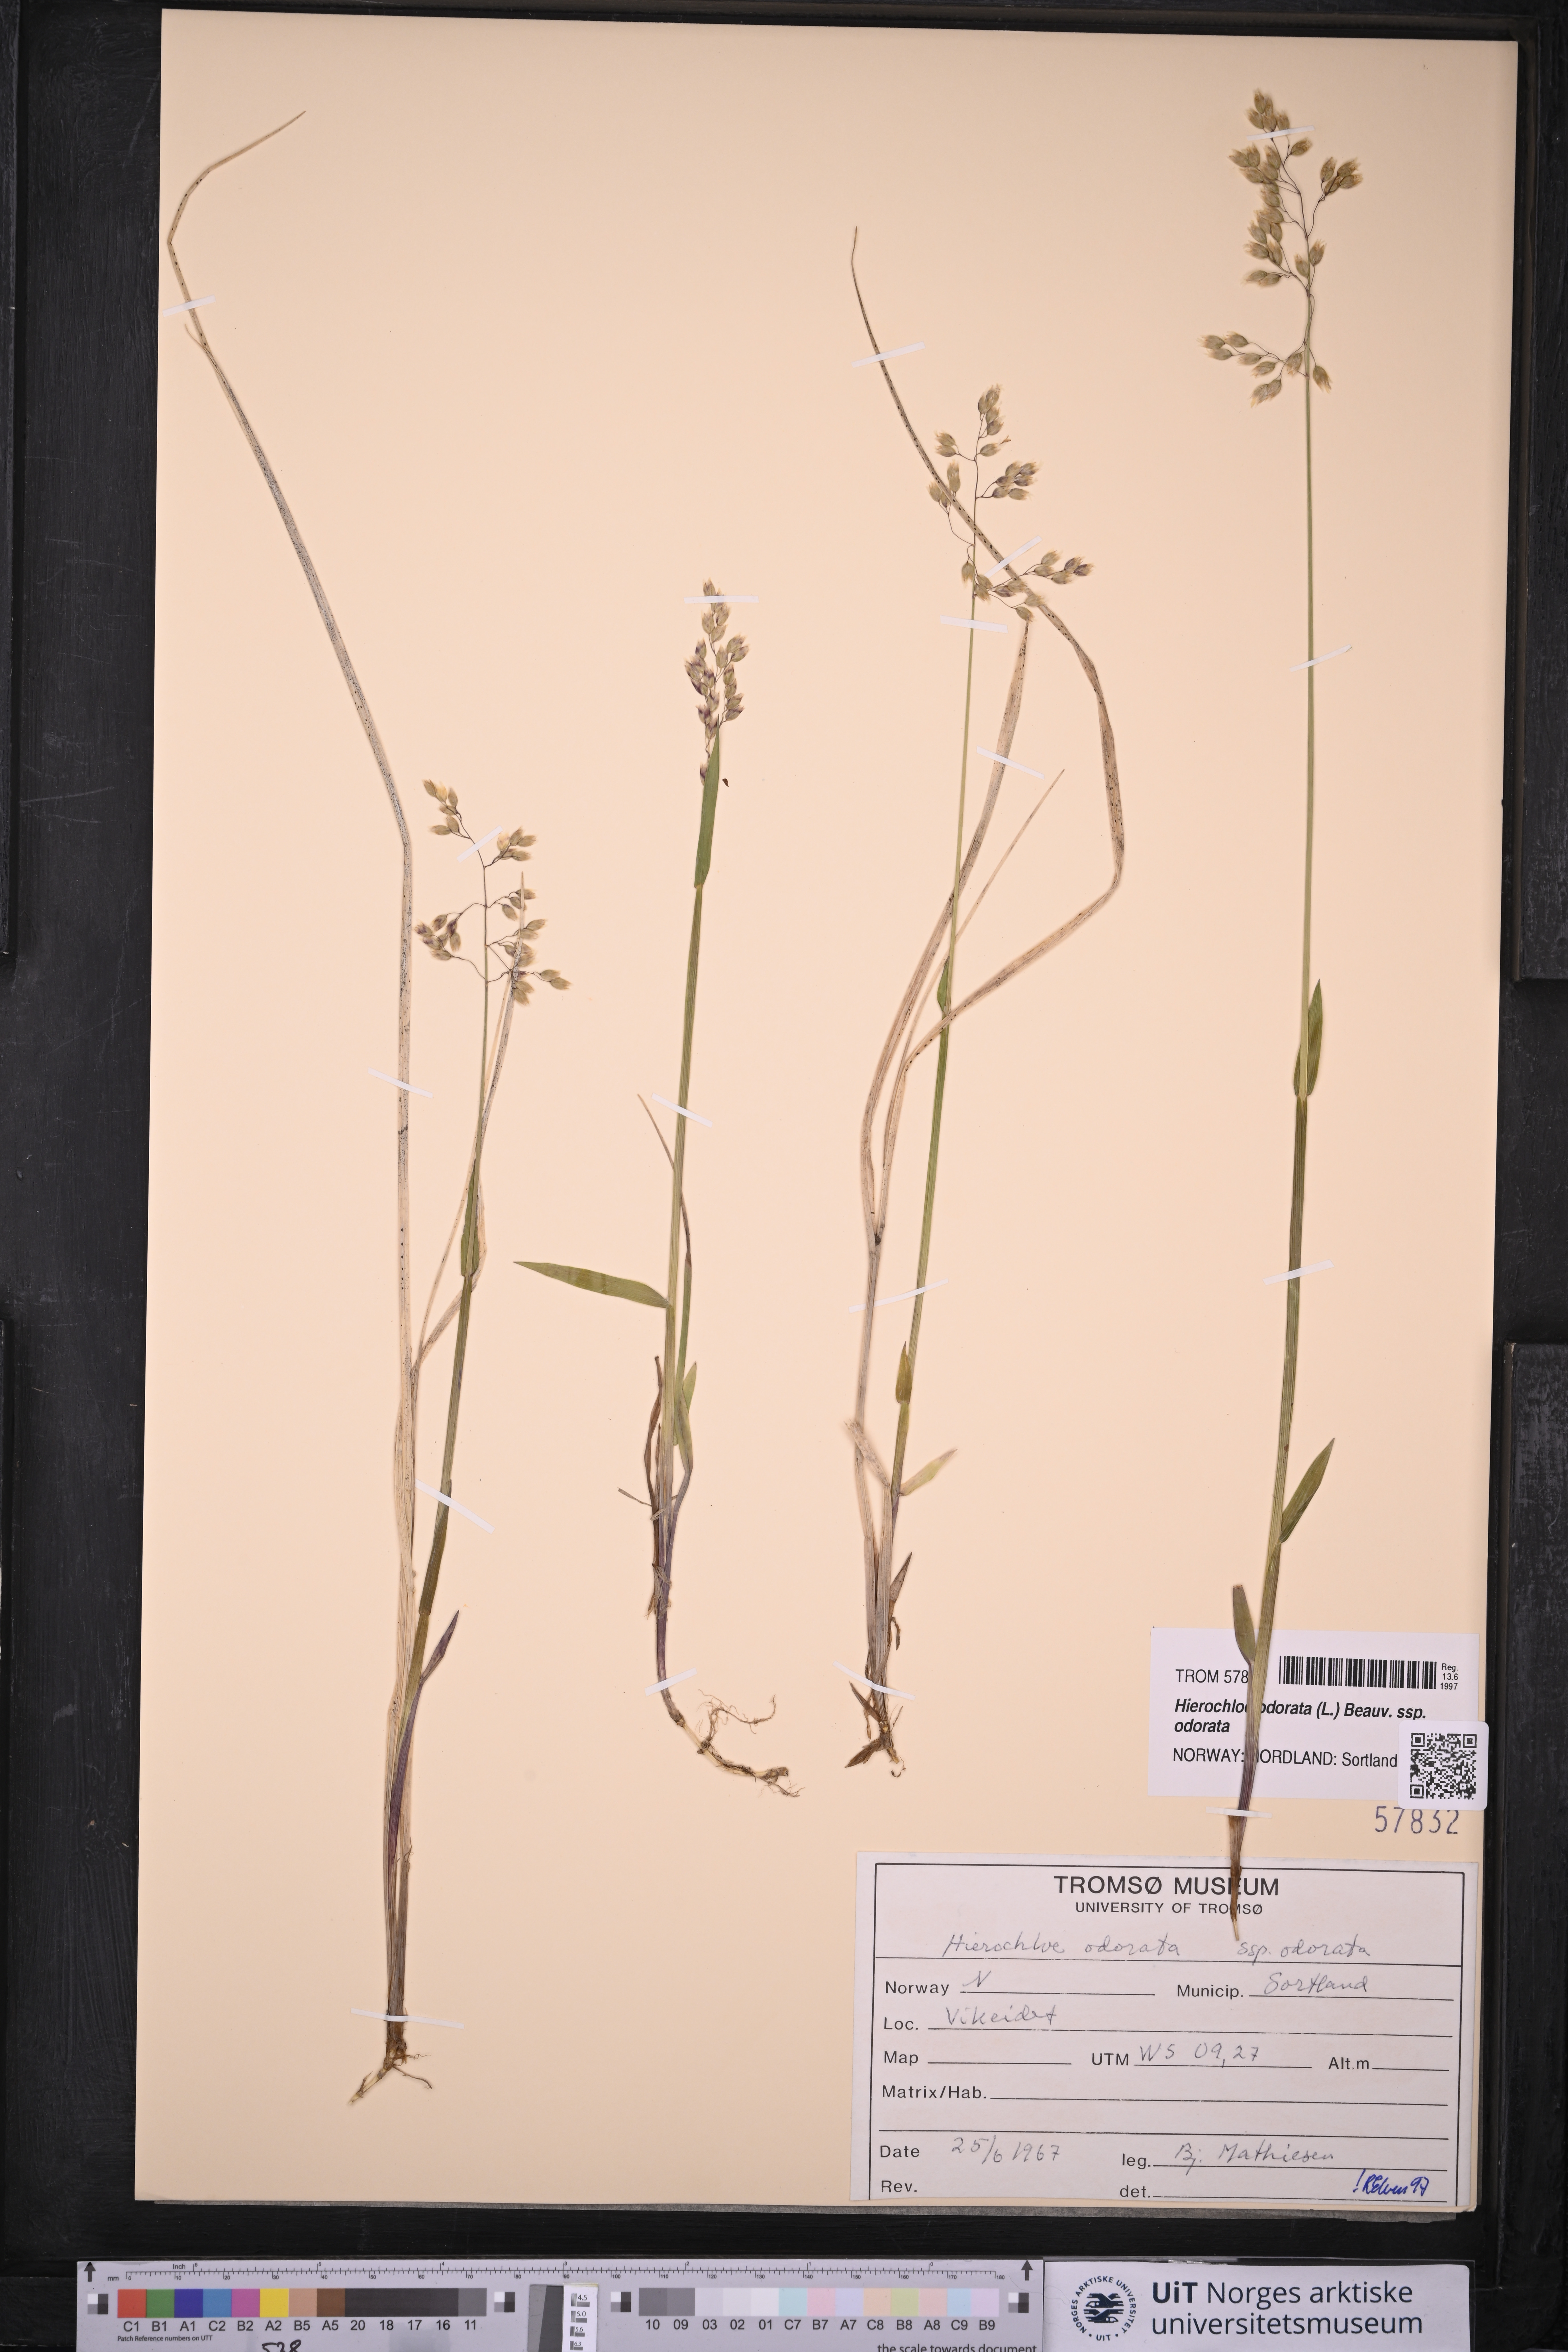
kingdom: Plantae
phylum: Tracheophyta
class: Liliopsida
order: Poales
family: Poaceae
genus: Anthoxanthum
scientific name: Anthoxanthum nitens
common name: Holy grass
